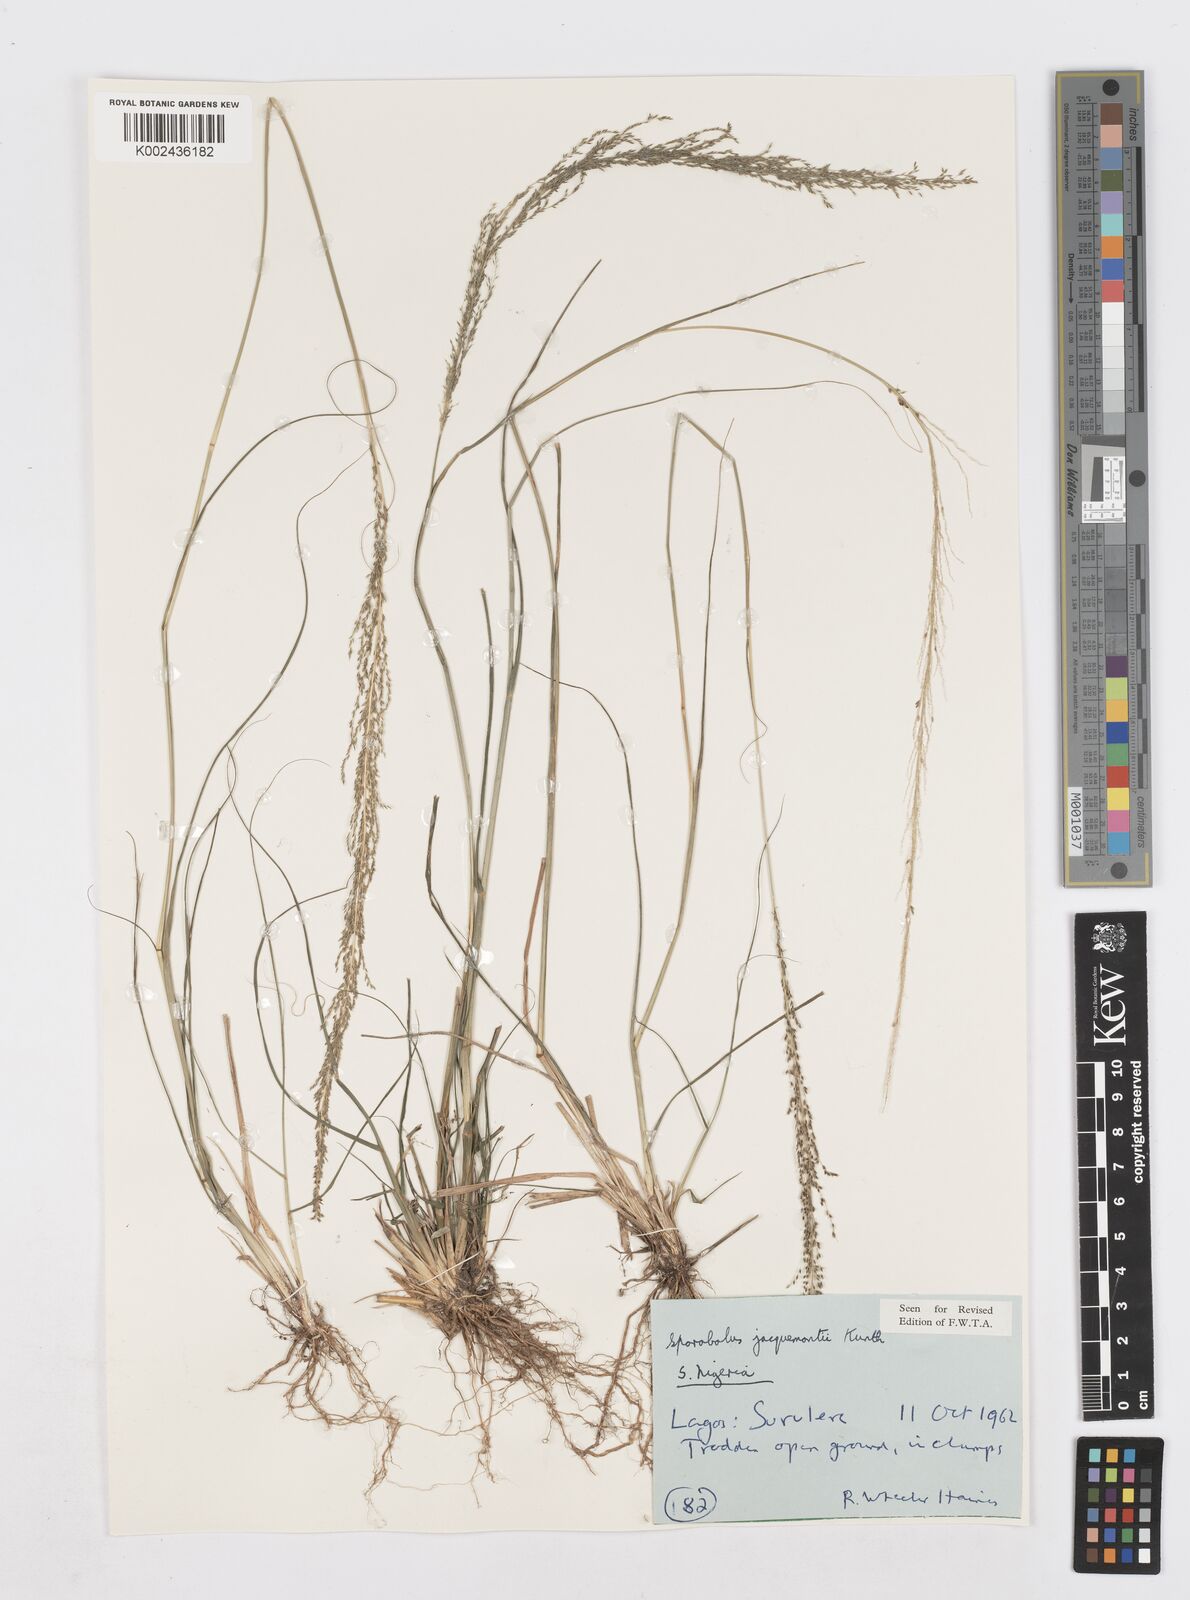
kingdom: Plantae
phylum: Tracheophyta
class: Liliopsida
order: Poales
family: Poaceae
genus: Sporobolus
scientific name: Sporobolus pyramidalis
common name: West indian dropseed
